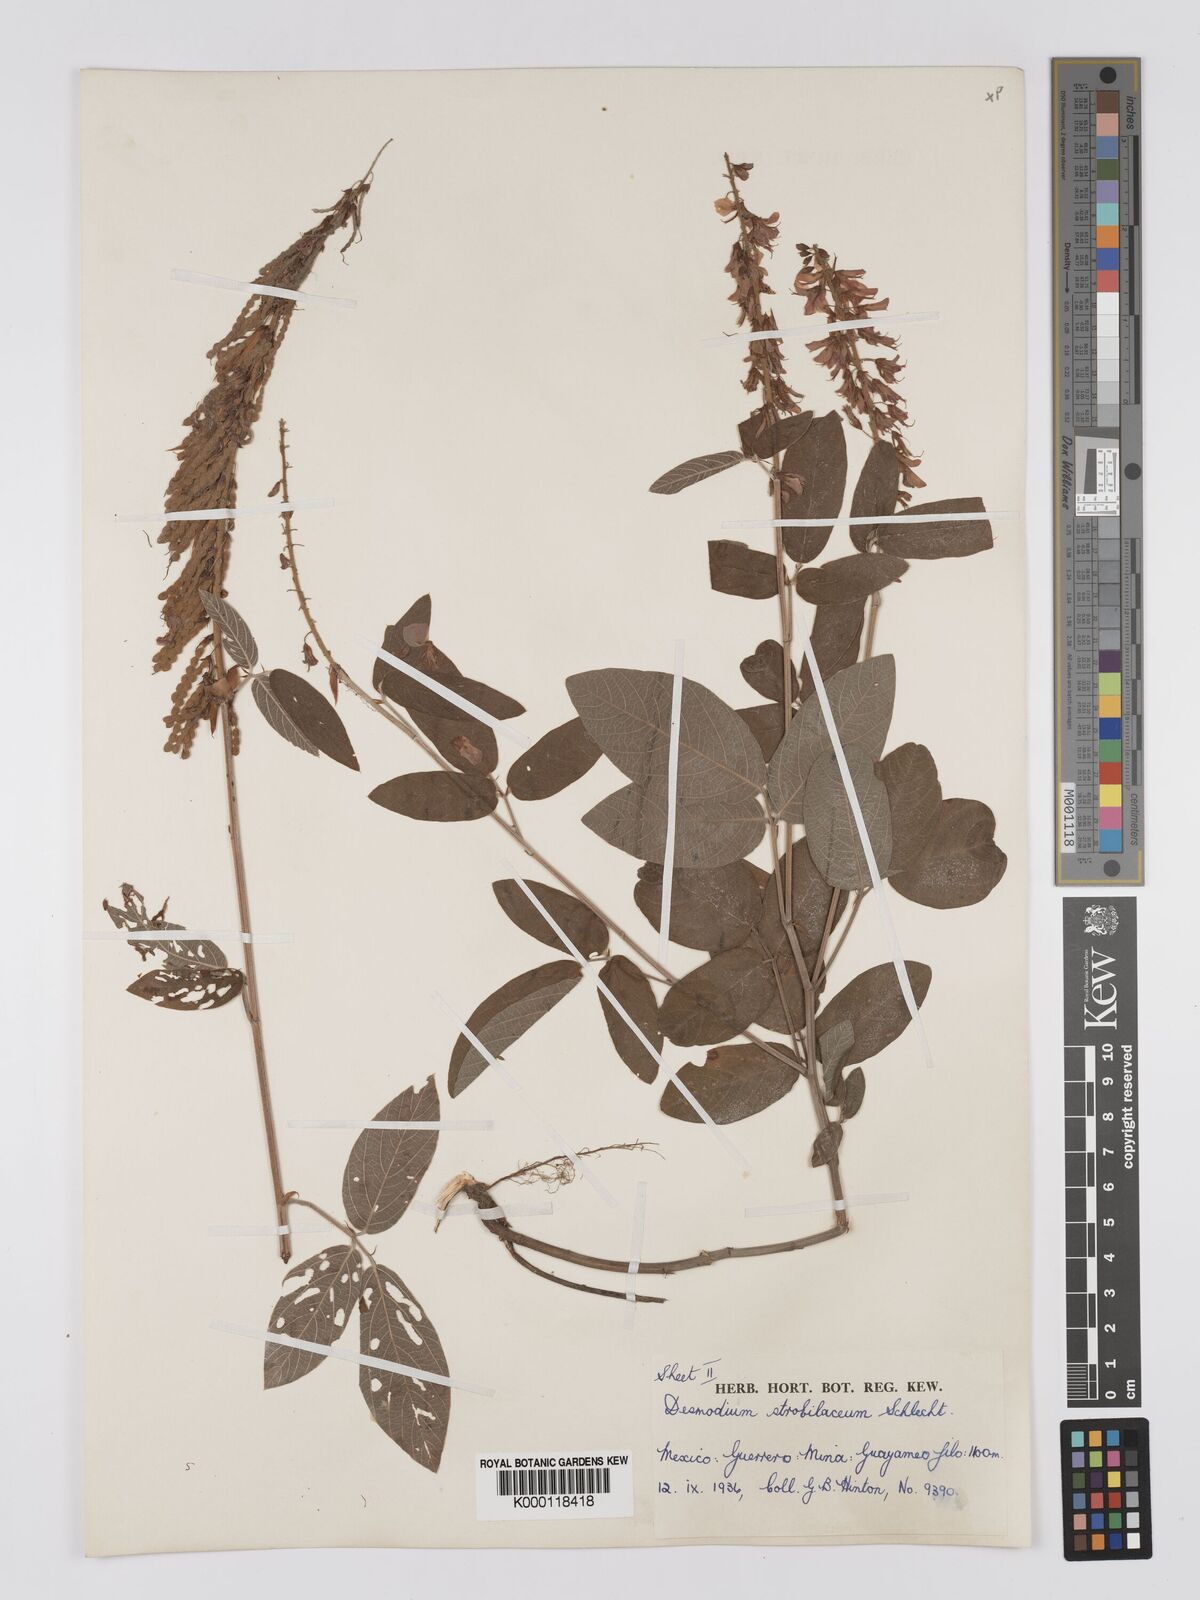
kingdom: Plantae
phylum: Tracheophyta
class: Magnoliopsida
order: Fabales
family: Fabaceae
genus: Desmodium
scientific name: Desmodium sericophyllum
